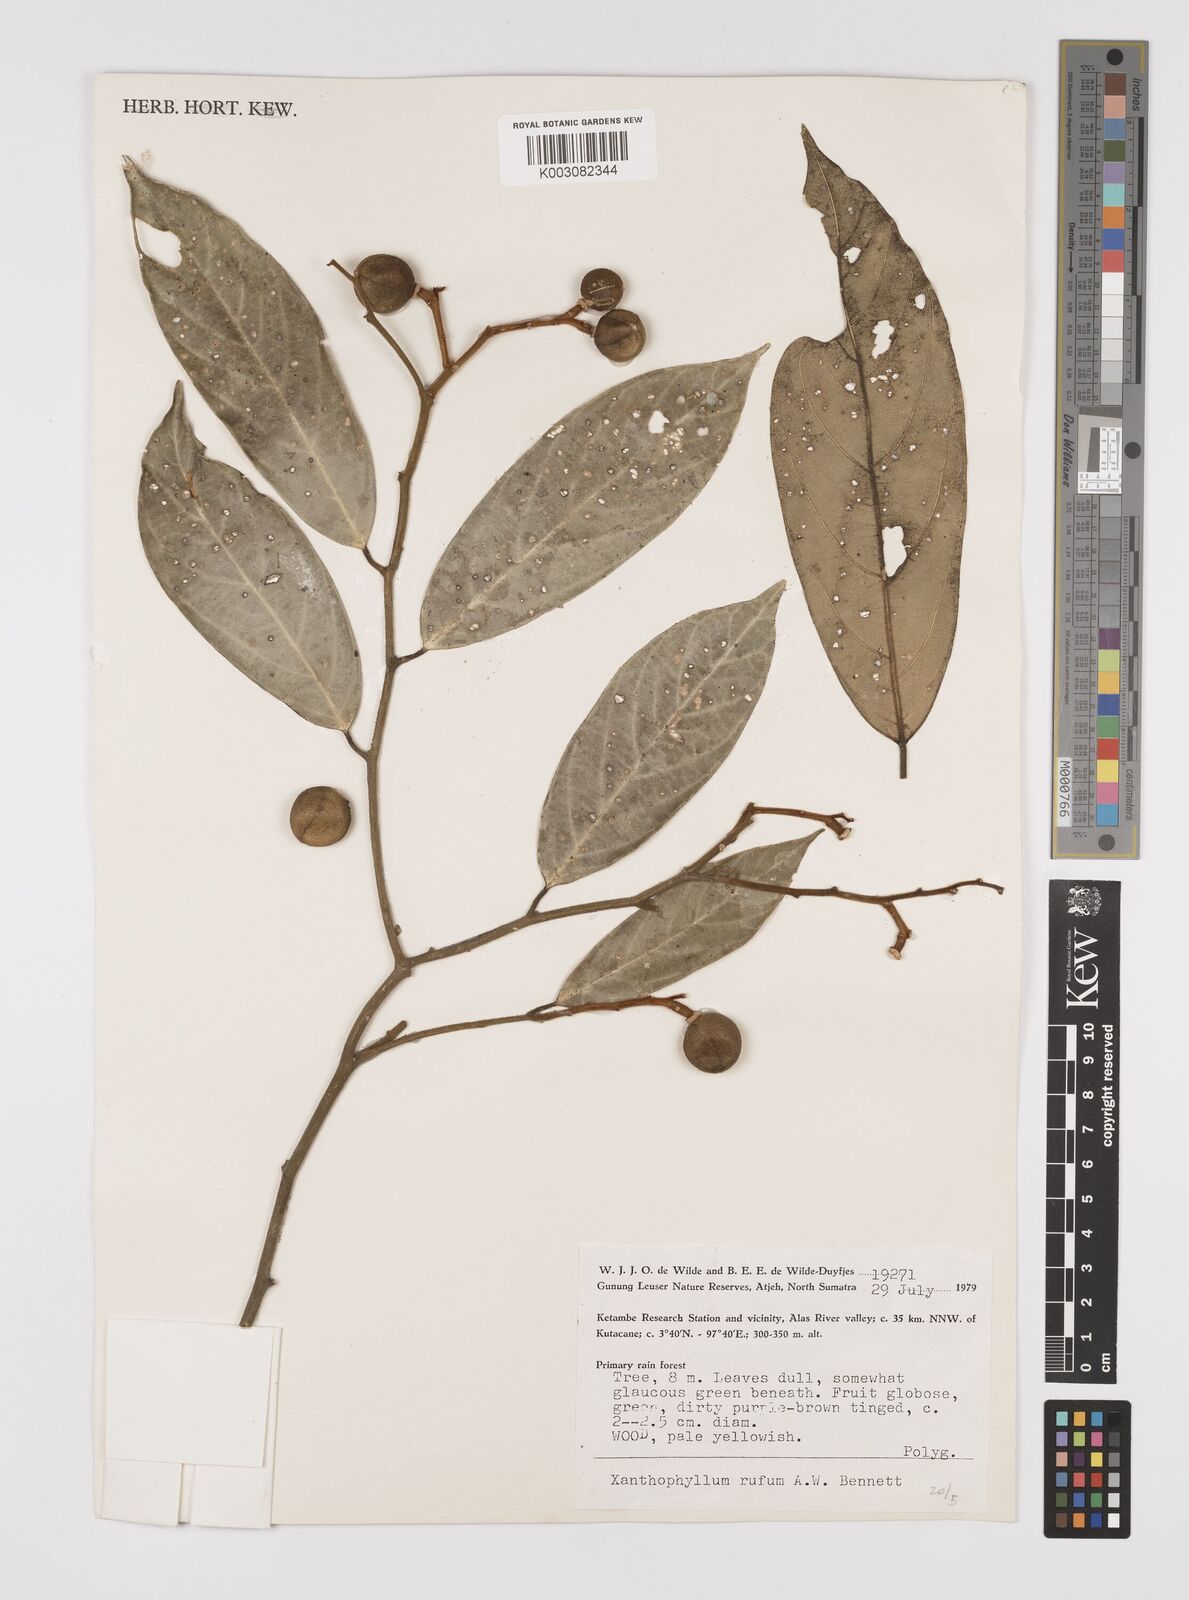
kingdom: Plantae
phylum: Tracheophyta
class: Magnoliopsida
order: Fabales
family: Polygalaceae
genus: Xanthophyllum
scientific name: Xanthophyllum rufum
